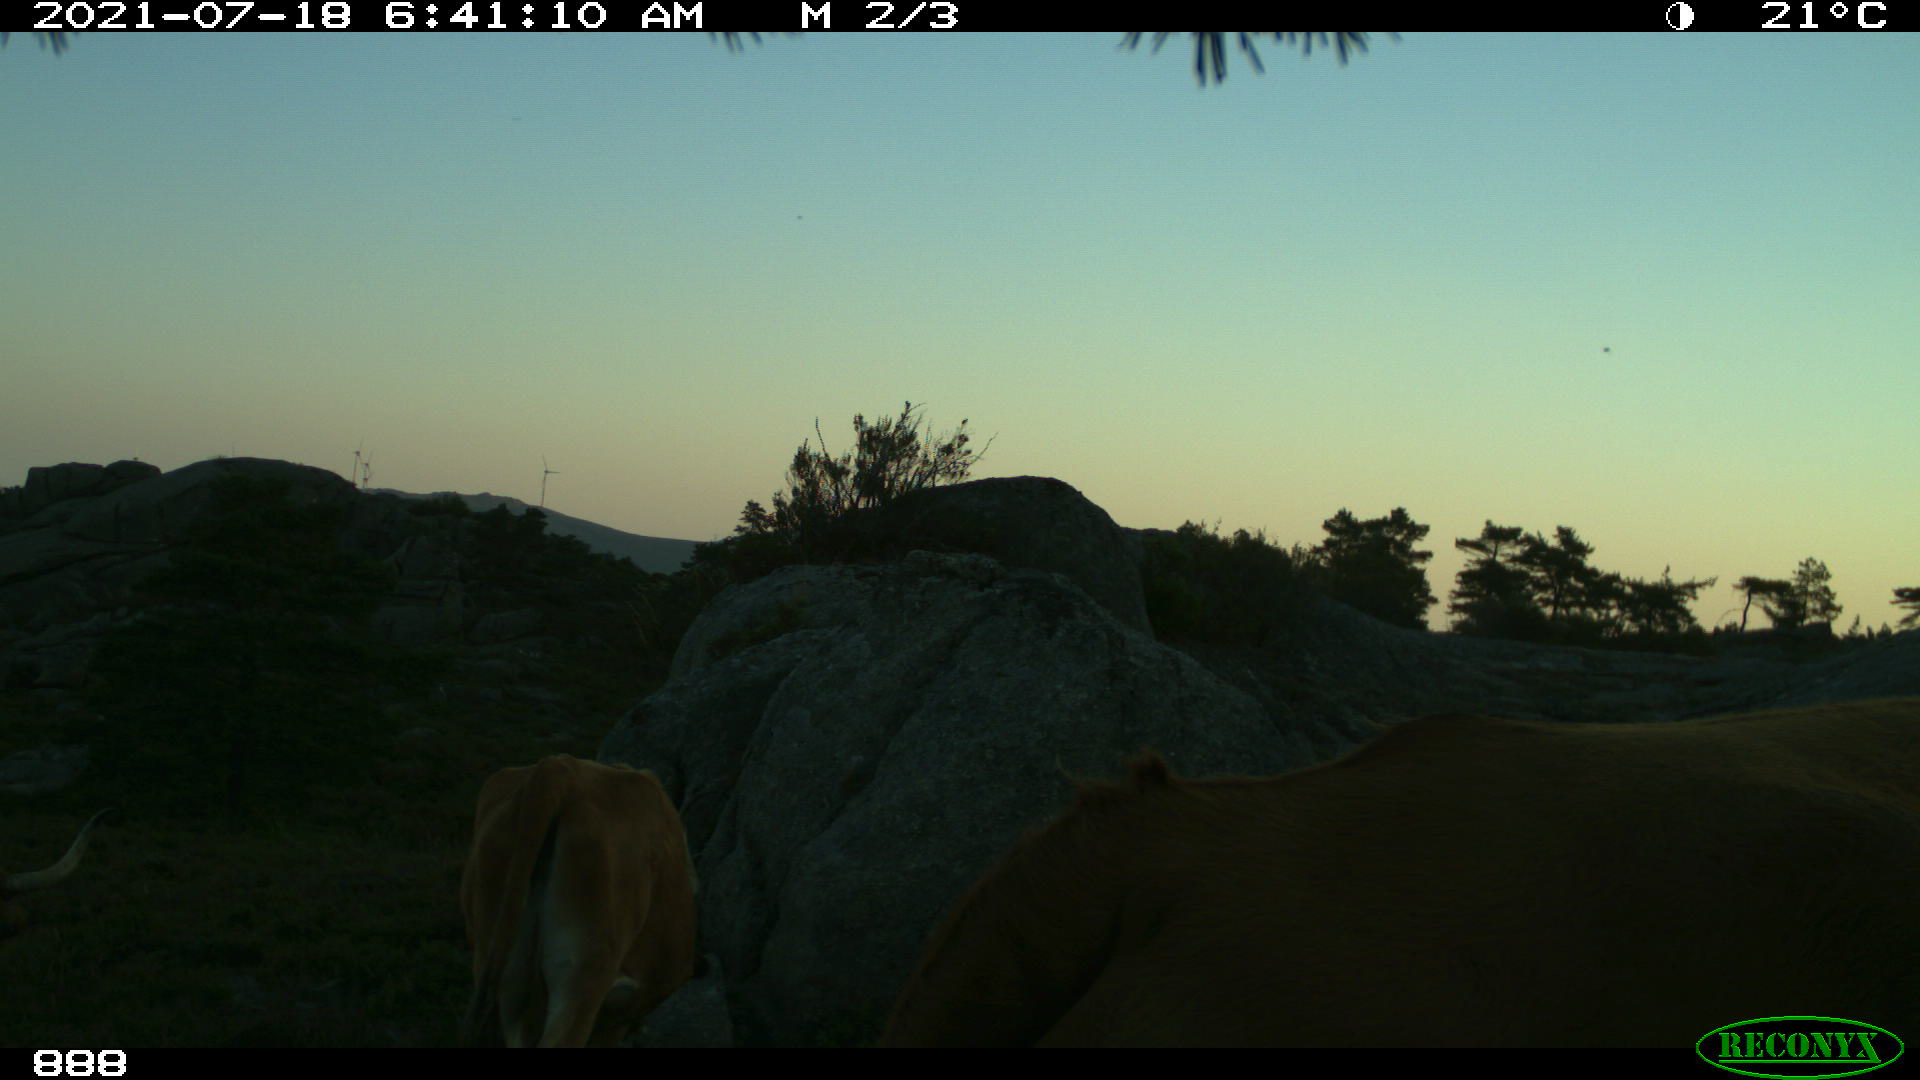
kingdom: Animalia
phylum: Chordata
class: Mammalia
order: Artiodactyla
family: Bovidae
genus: Bos
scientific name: Bos taurus
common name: Domesticated cattle
